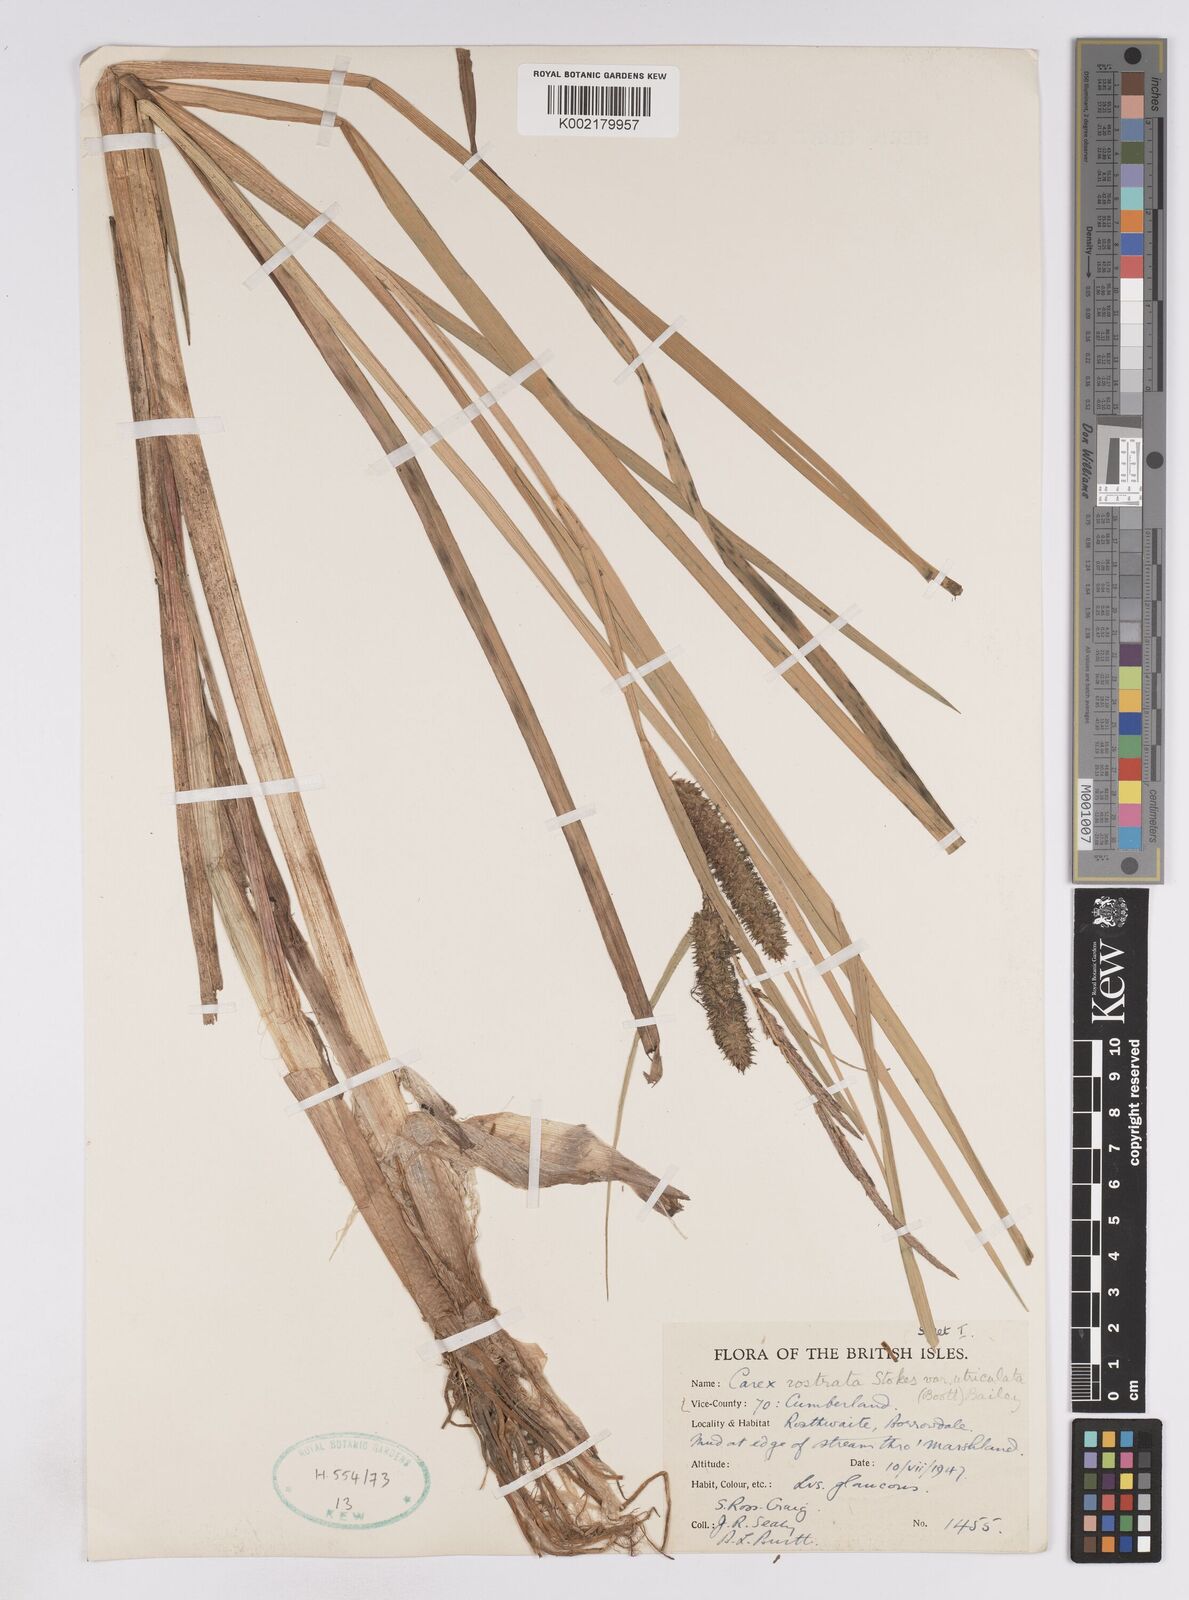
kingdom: Plantae
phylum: Tracheophyta
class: Liliopsida
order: Poales
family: Cyperaceae
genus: Carex
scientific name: Carex utriculata
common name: Beaked sedge
